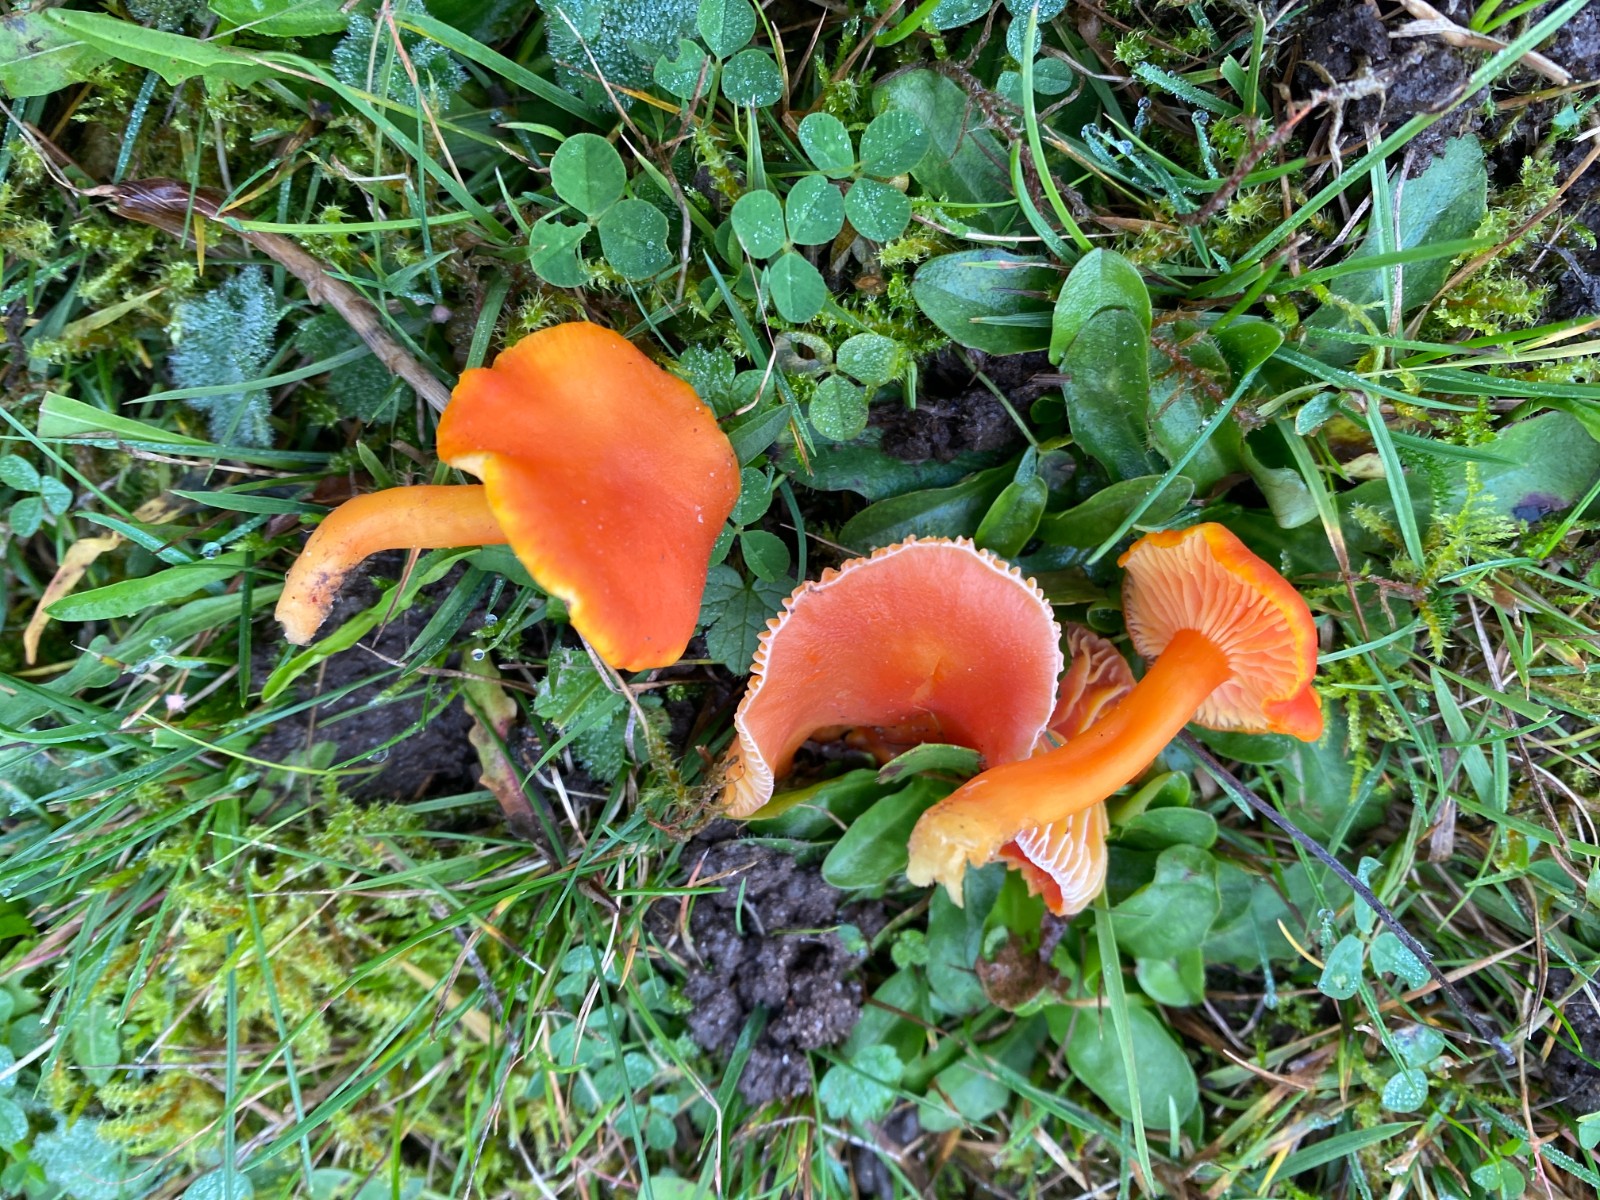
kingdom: Fungi
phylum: Basidiomycota
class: Agaricomycetes
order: Agaricales
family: Hygrophoraceae
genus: Hygrocybe
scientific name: Hygrocybe reidii
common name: honning-vokshat
